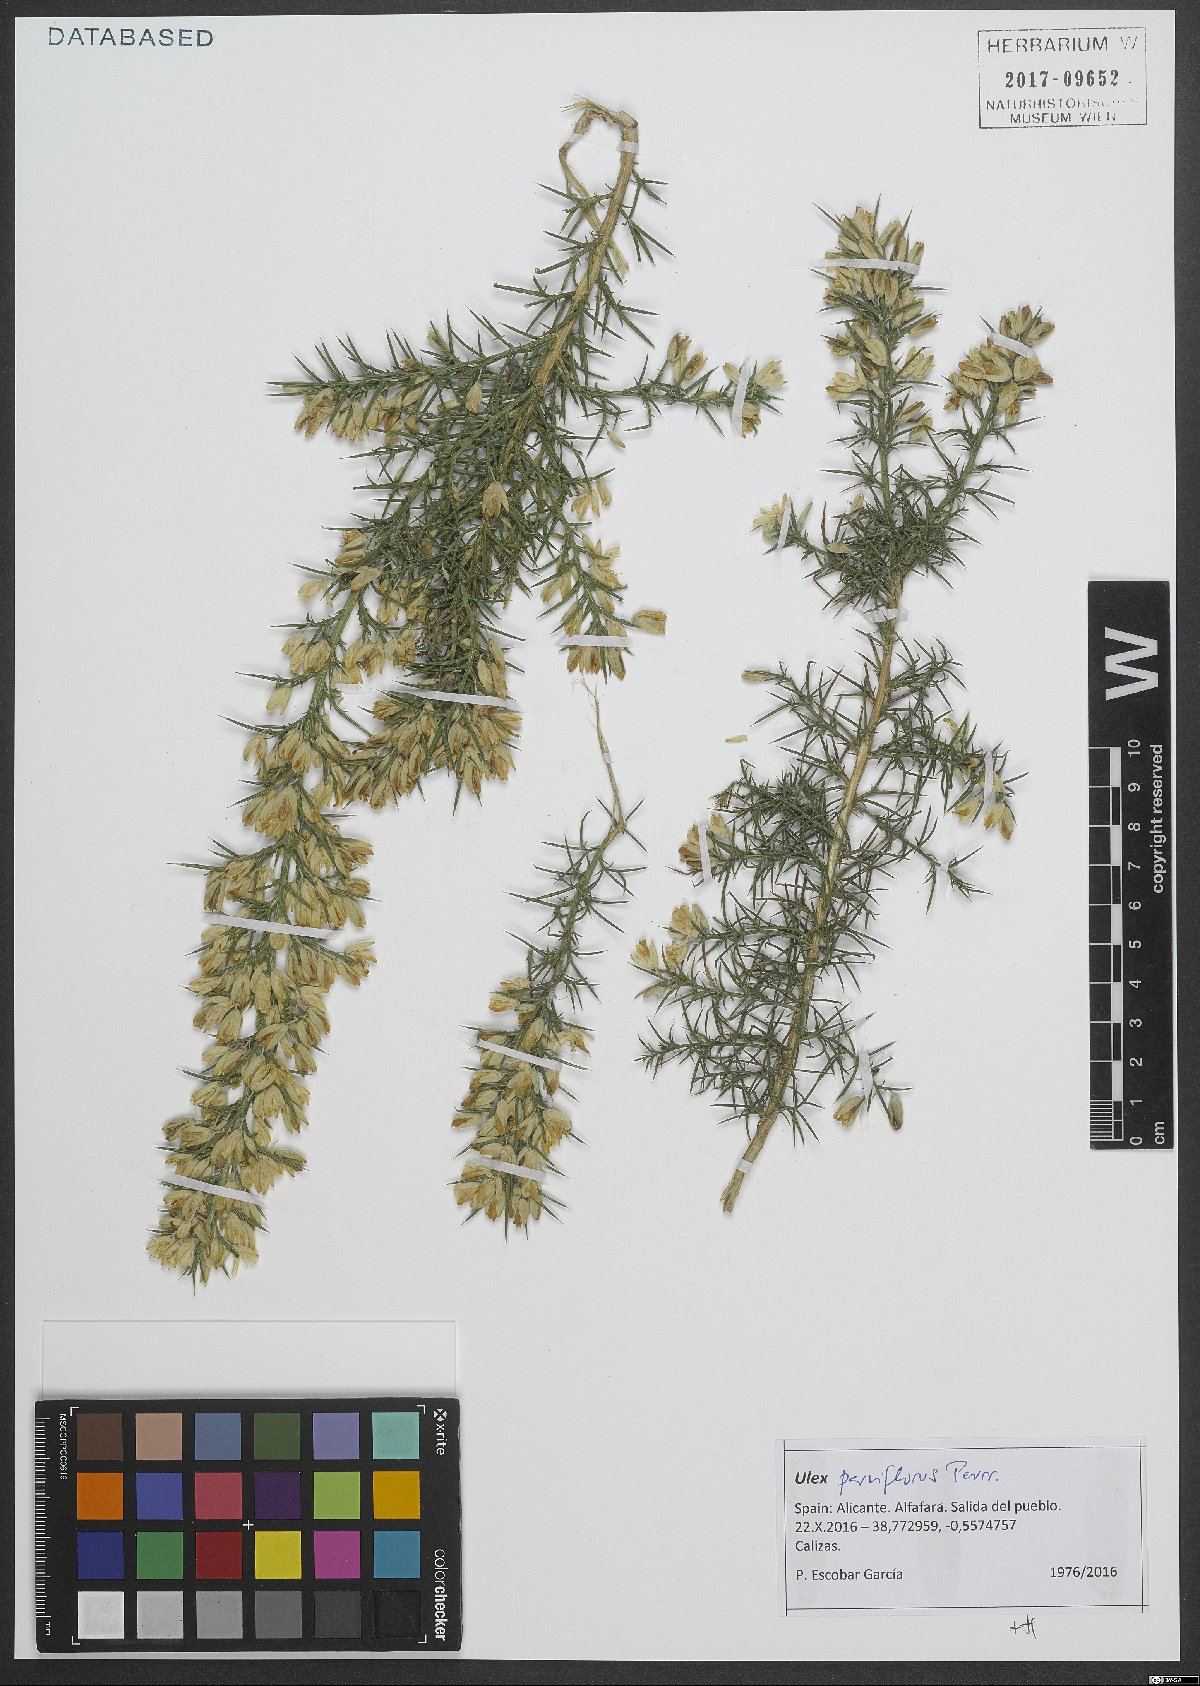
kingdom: Plantae
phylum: Tracheophyta
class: Magnoliopsida
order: Fabales
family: Fabaceae
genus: Ulex
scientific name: Ulex parviflorus
